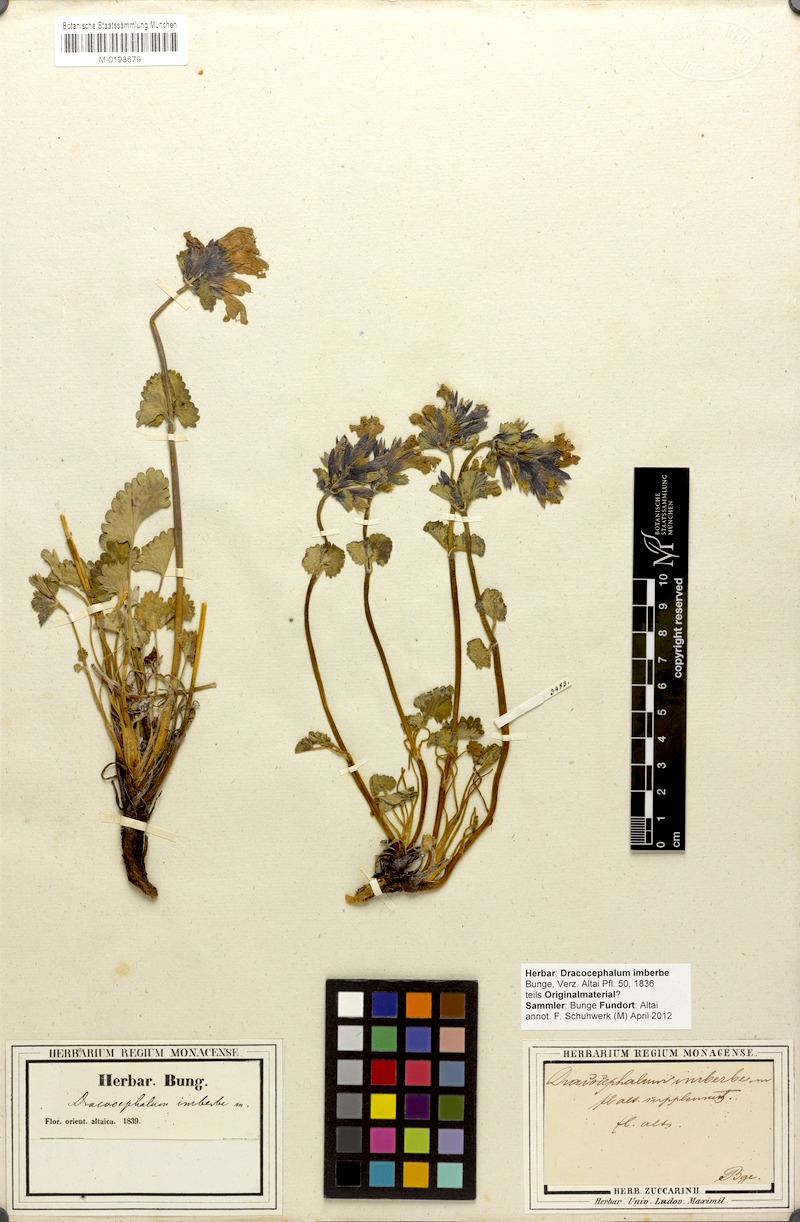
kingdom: Plantae
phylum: Tracheophyta
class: Magnoliopsida
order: Lamiales
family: Lamiaceae
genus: Dracocephalum
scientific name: Dracocephalum imberbe
